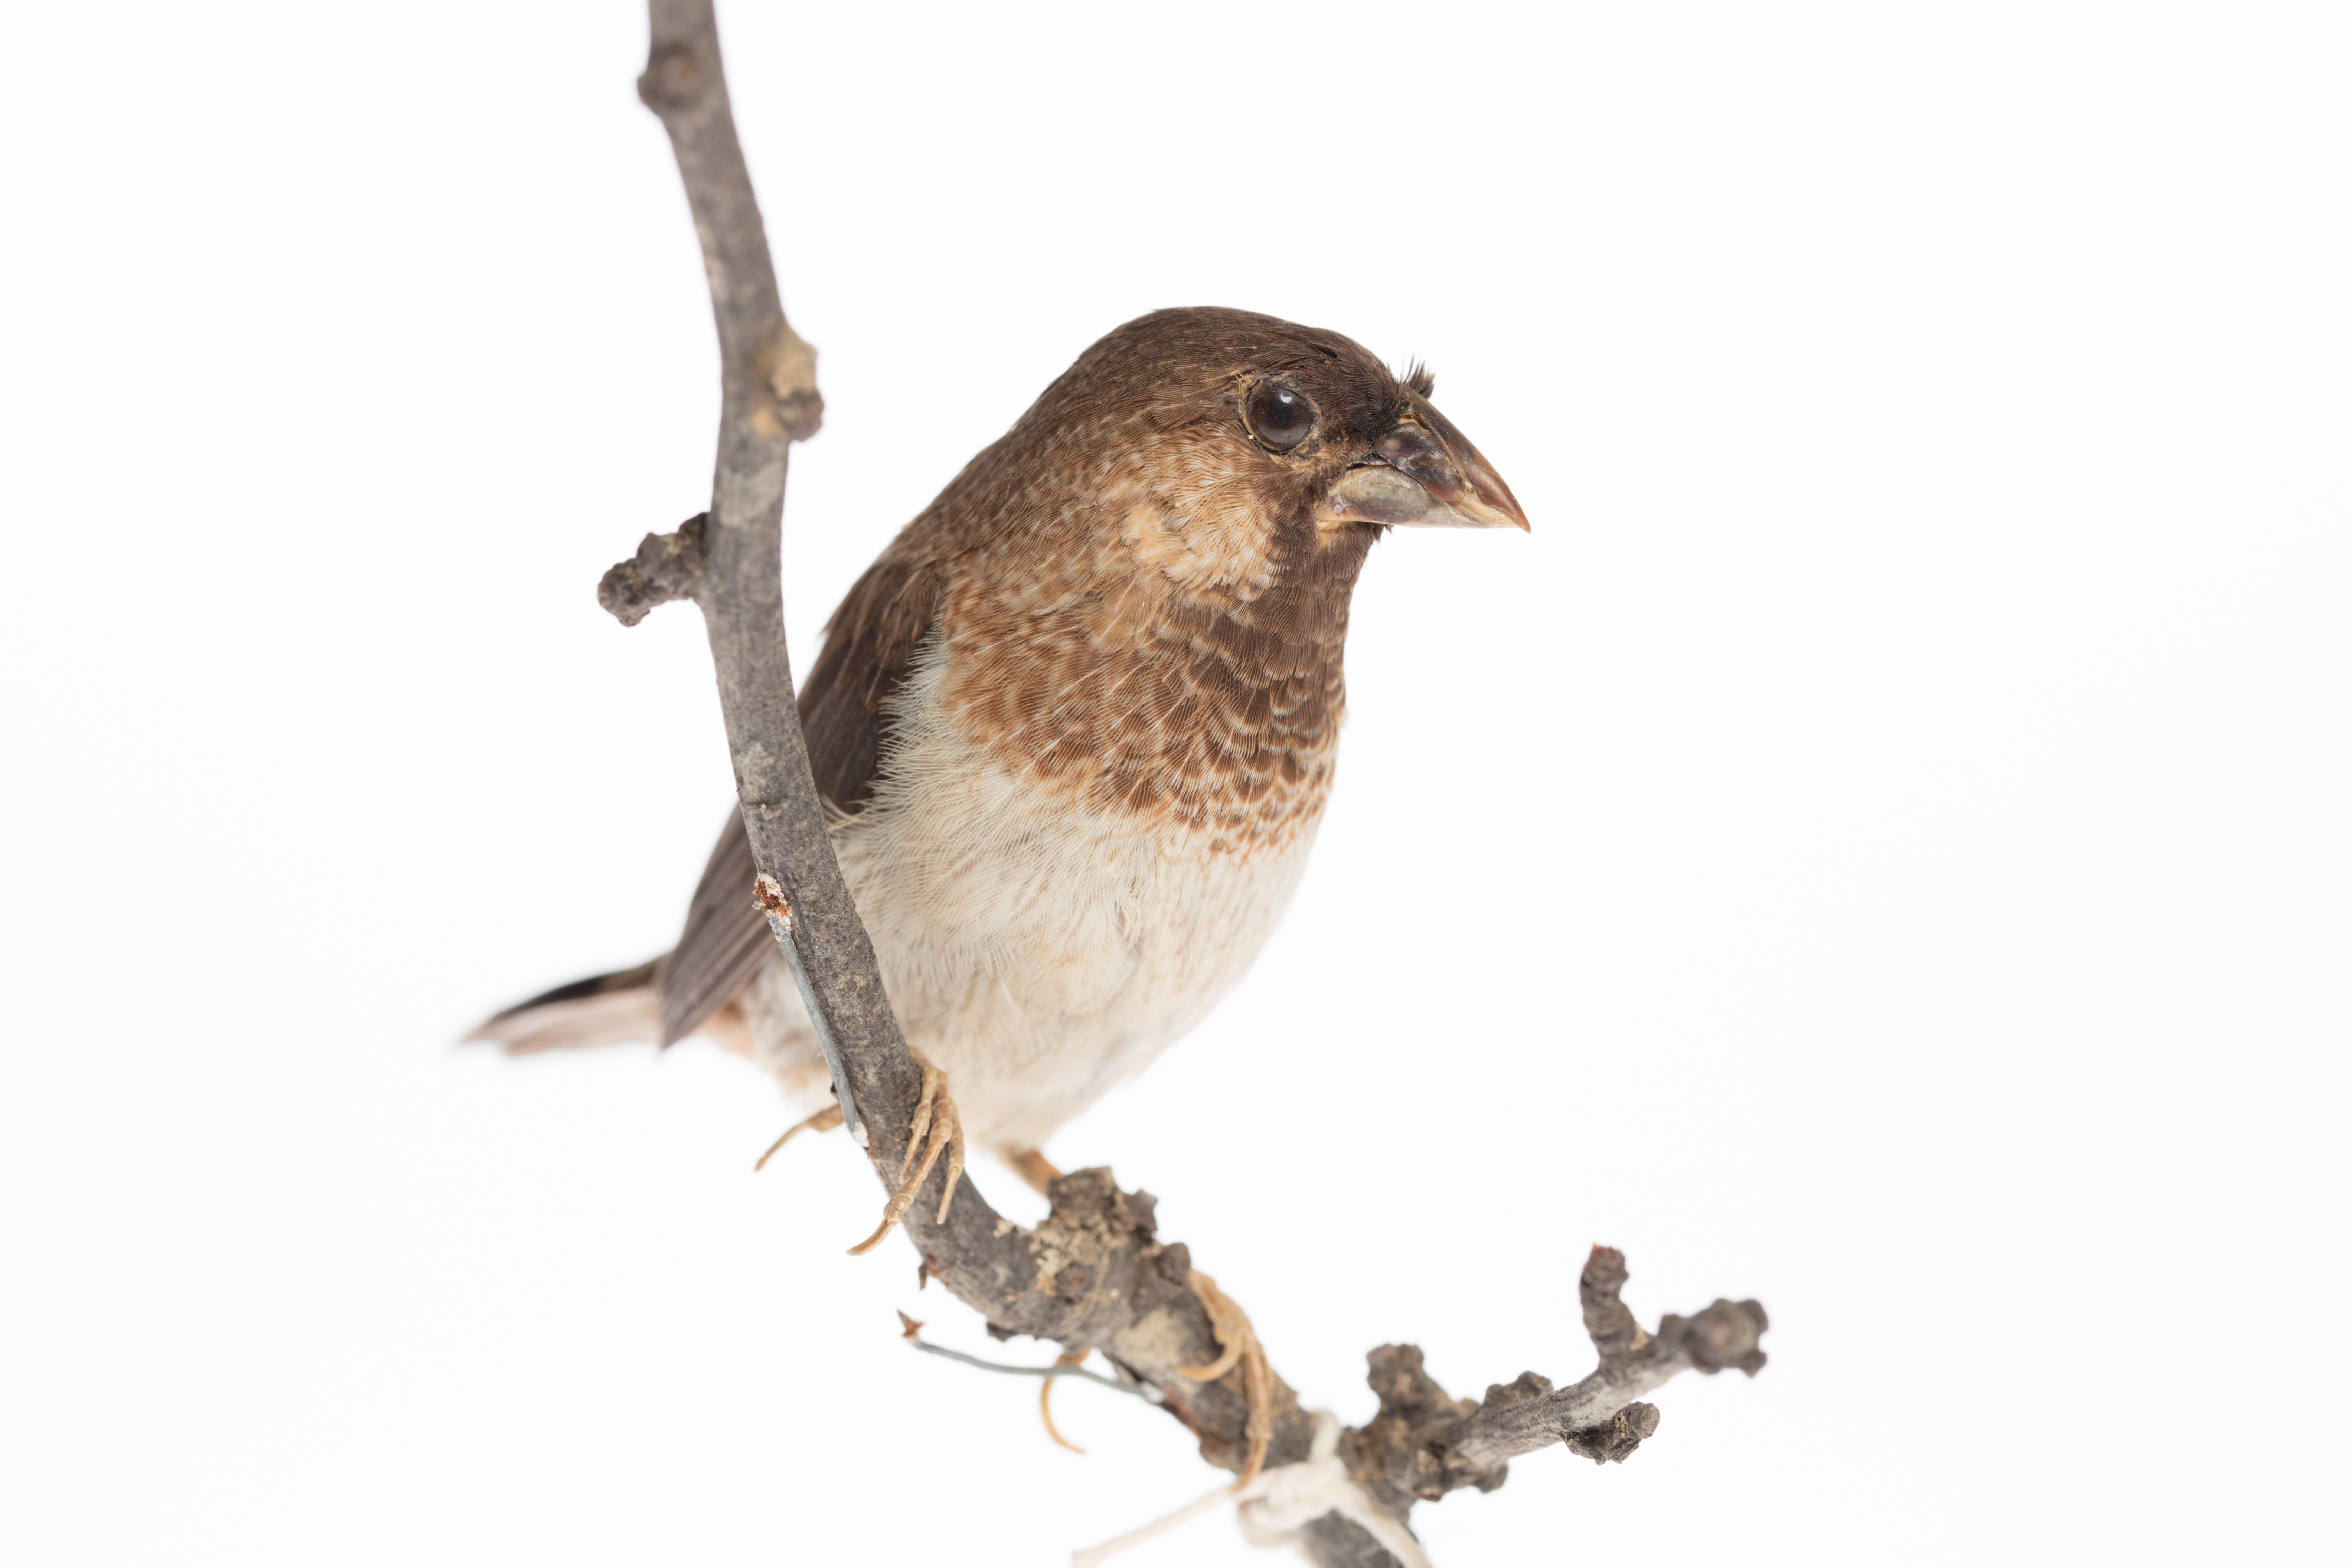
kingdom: Animalia
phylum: Chordata
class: Aves
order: Passeriformes
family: Estrildidae
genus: Lonchura
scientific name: Lonchura striata
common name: White-rumped munia
